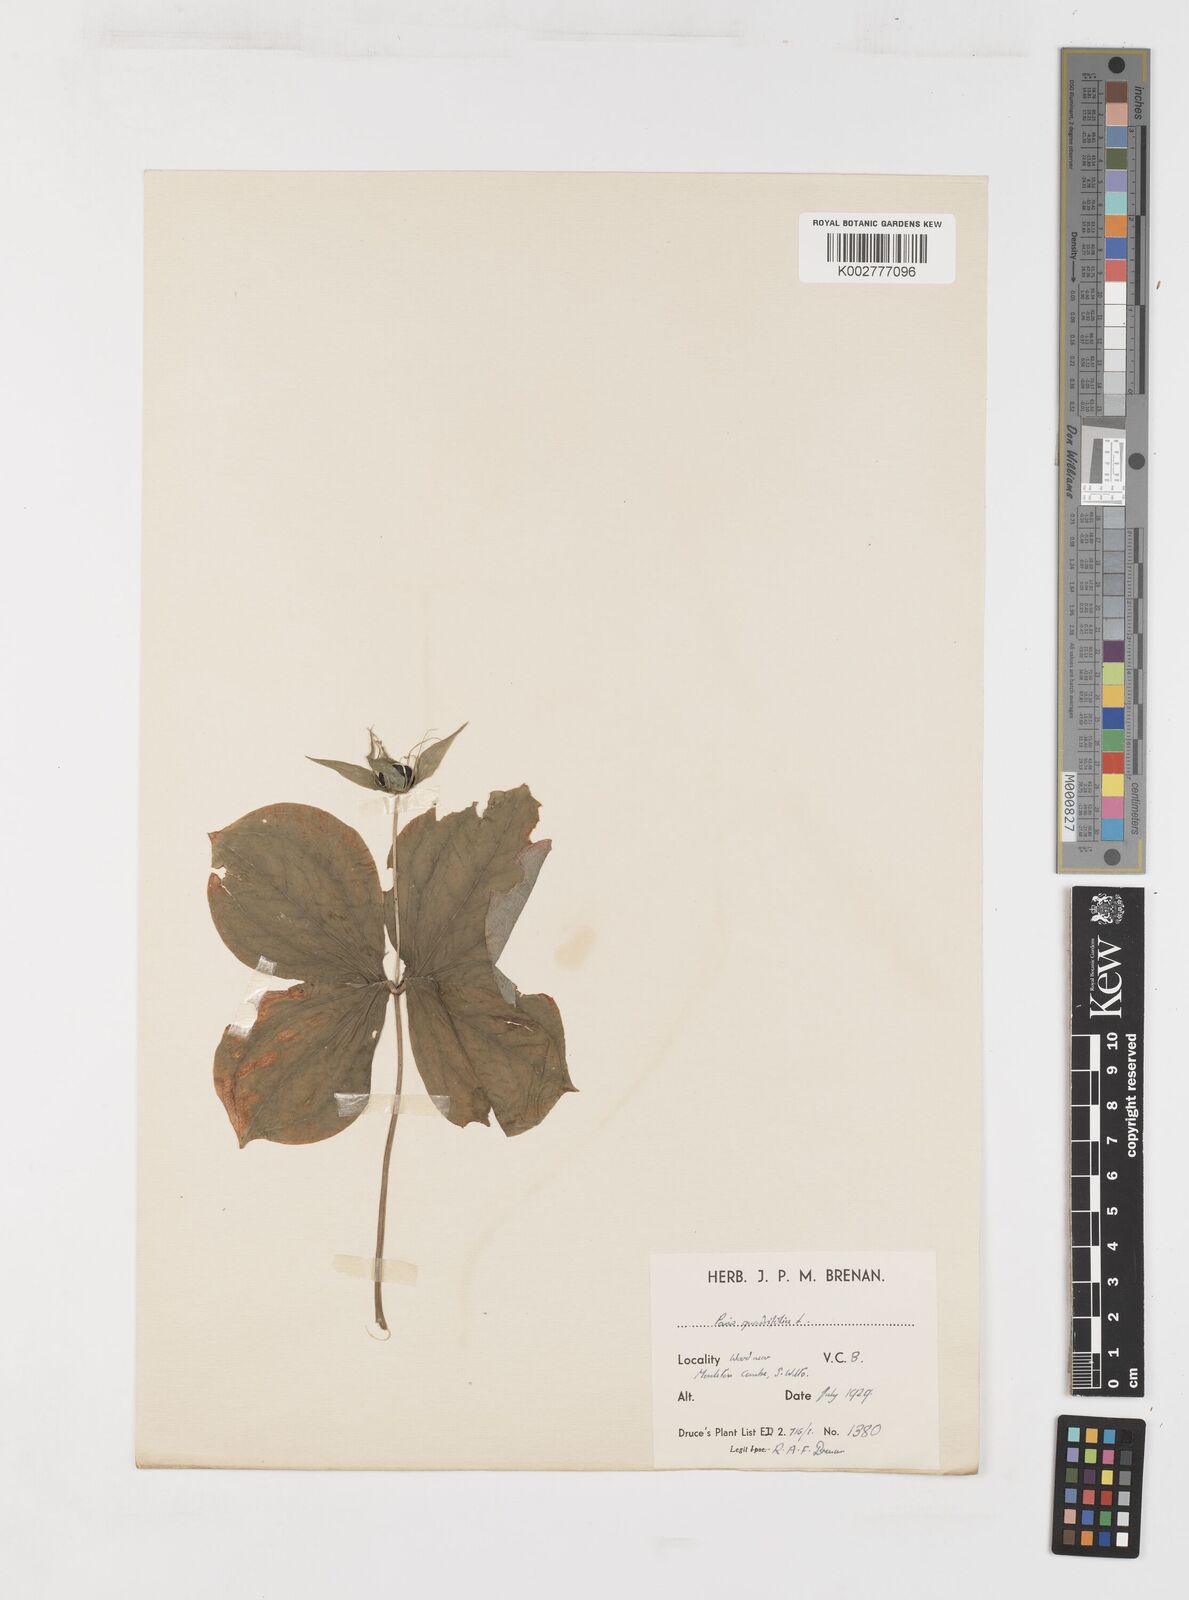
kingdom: Plantae
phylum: Tracheophyta
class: Liliopsida
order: Liliales
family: Melanthiaceae
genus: Paris
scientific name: Paris quadrifolia
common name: Herb-paris
